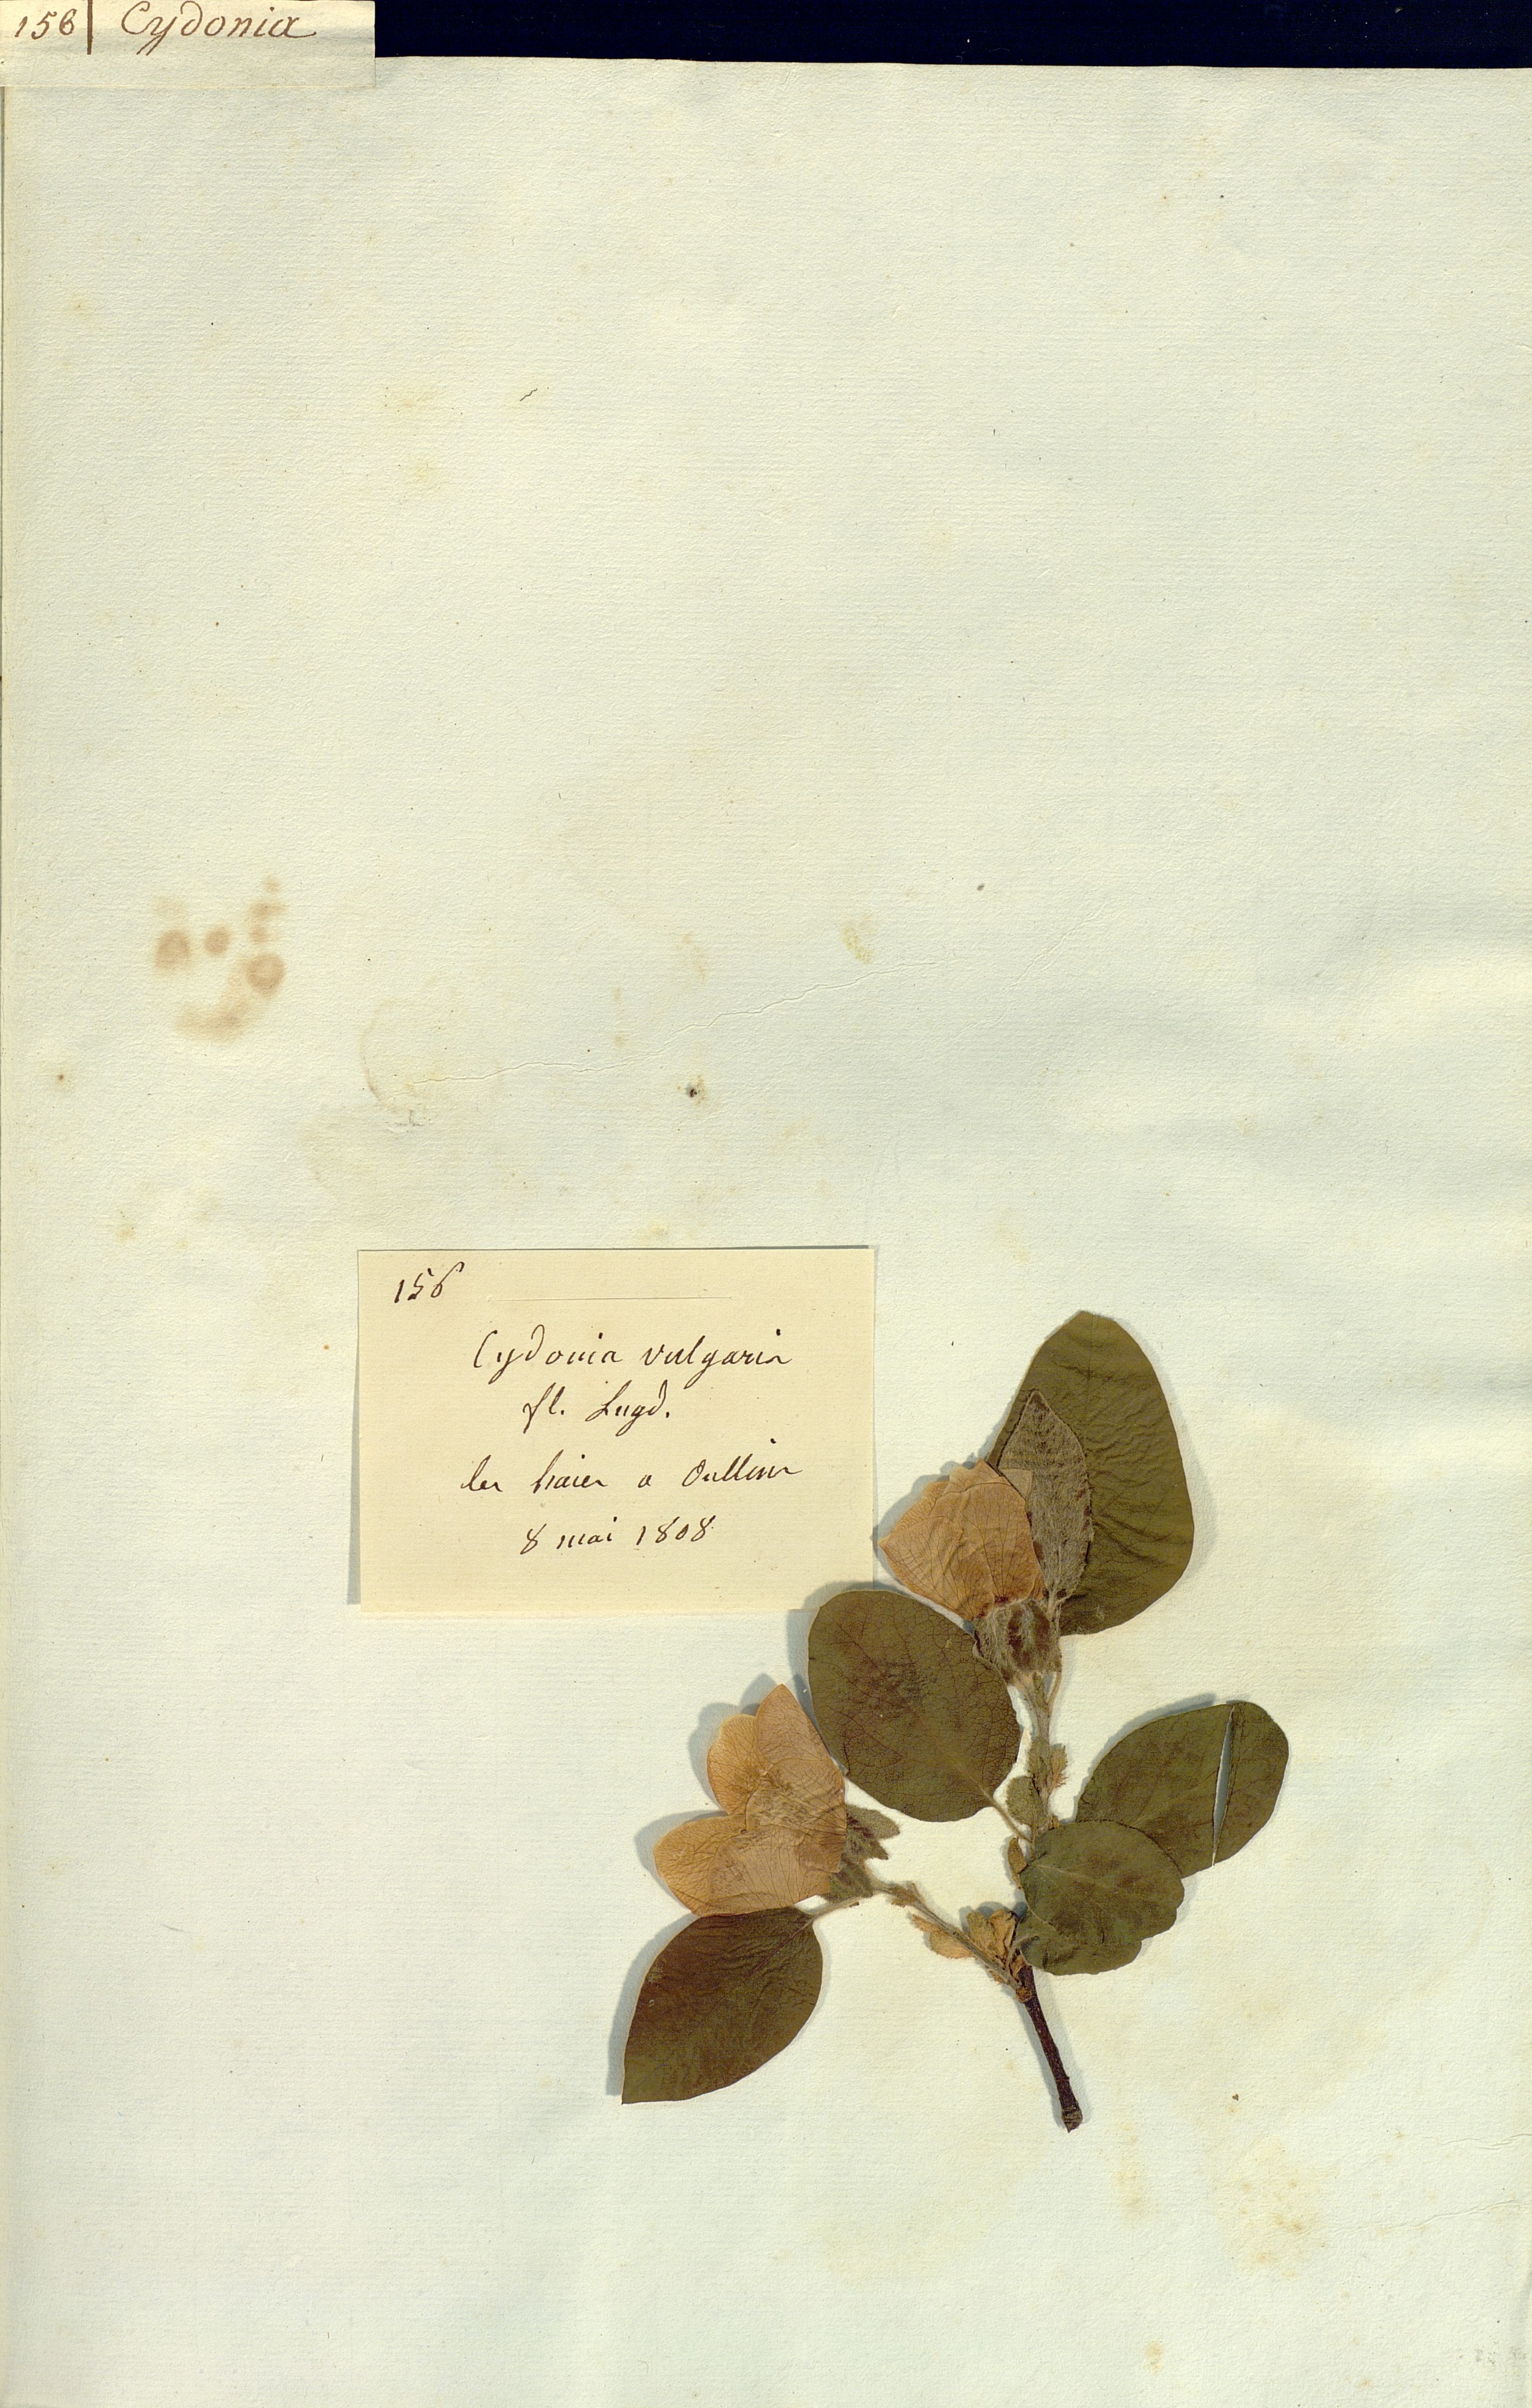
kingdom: Plantae
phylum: Tracheophyta
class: Magnoliopsida
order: Rosales
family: Rosaceae
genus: Cydonia
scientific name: Cydonia oblonga
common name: Quince
